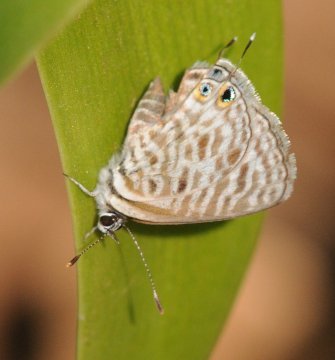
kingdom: Animalia
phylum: Arthropoda
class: Insecta
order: Lepidoptera
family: Lycaenidae
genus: Leptotes
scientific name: Leptotes pirithous
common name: Lang's Short-tailed Blue
